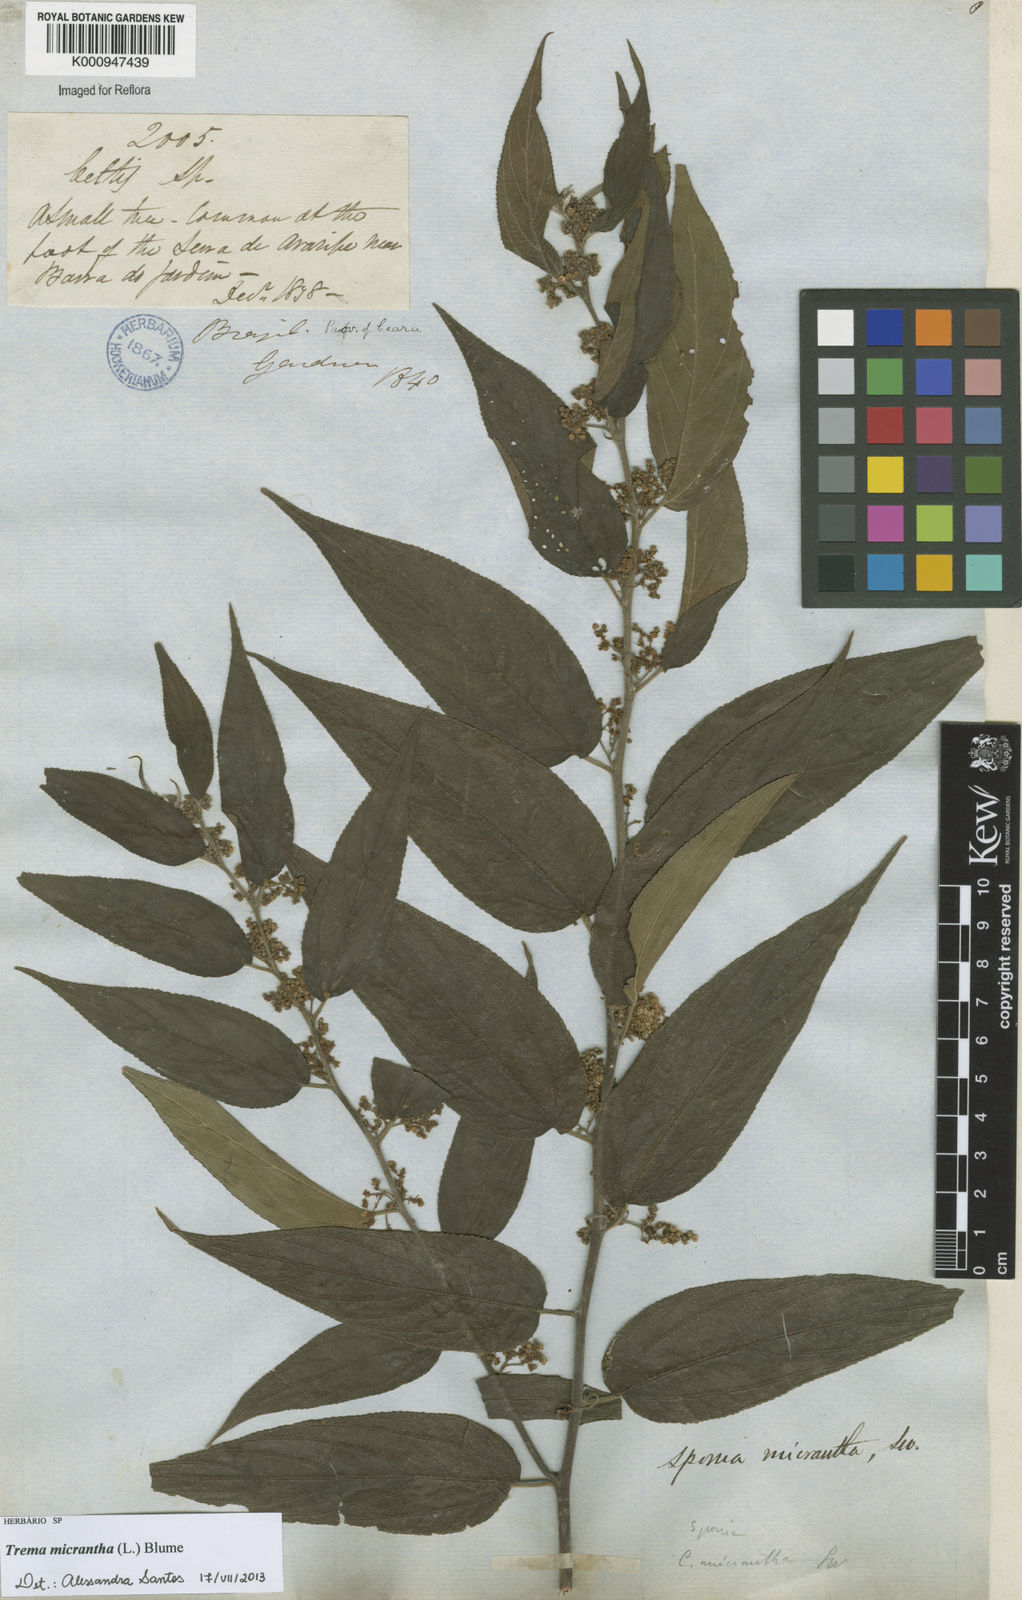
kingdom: Plantae
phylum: Tracheophyta
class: Magnoliopsida
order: Rosales
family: Cannabaceae
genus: Trema
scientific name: Trema micranthum
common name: Jamaican nettletree
